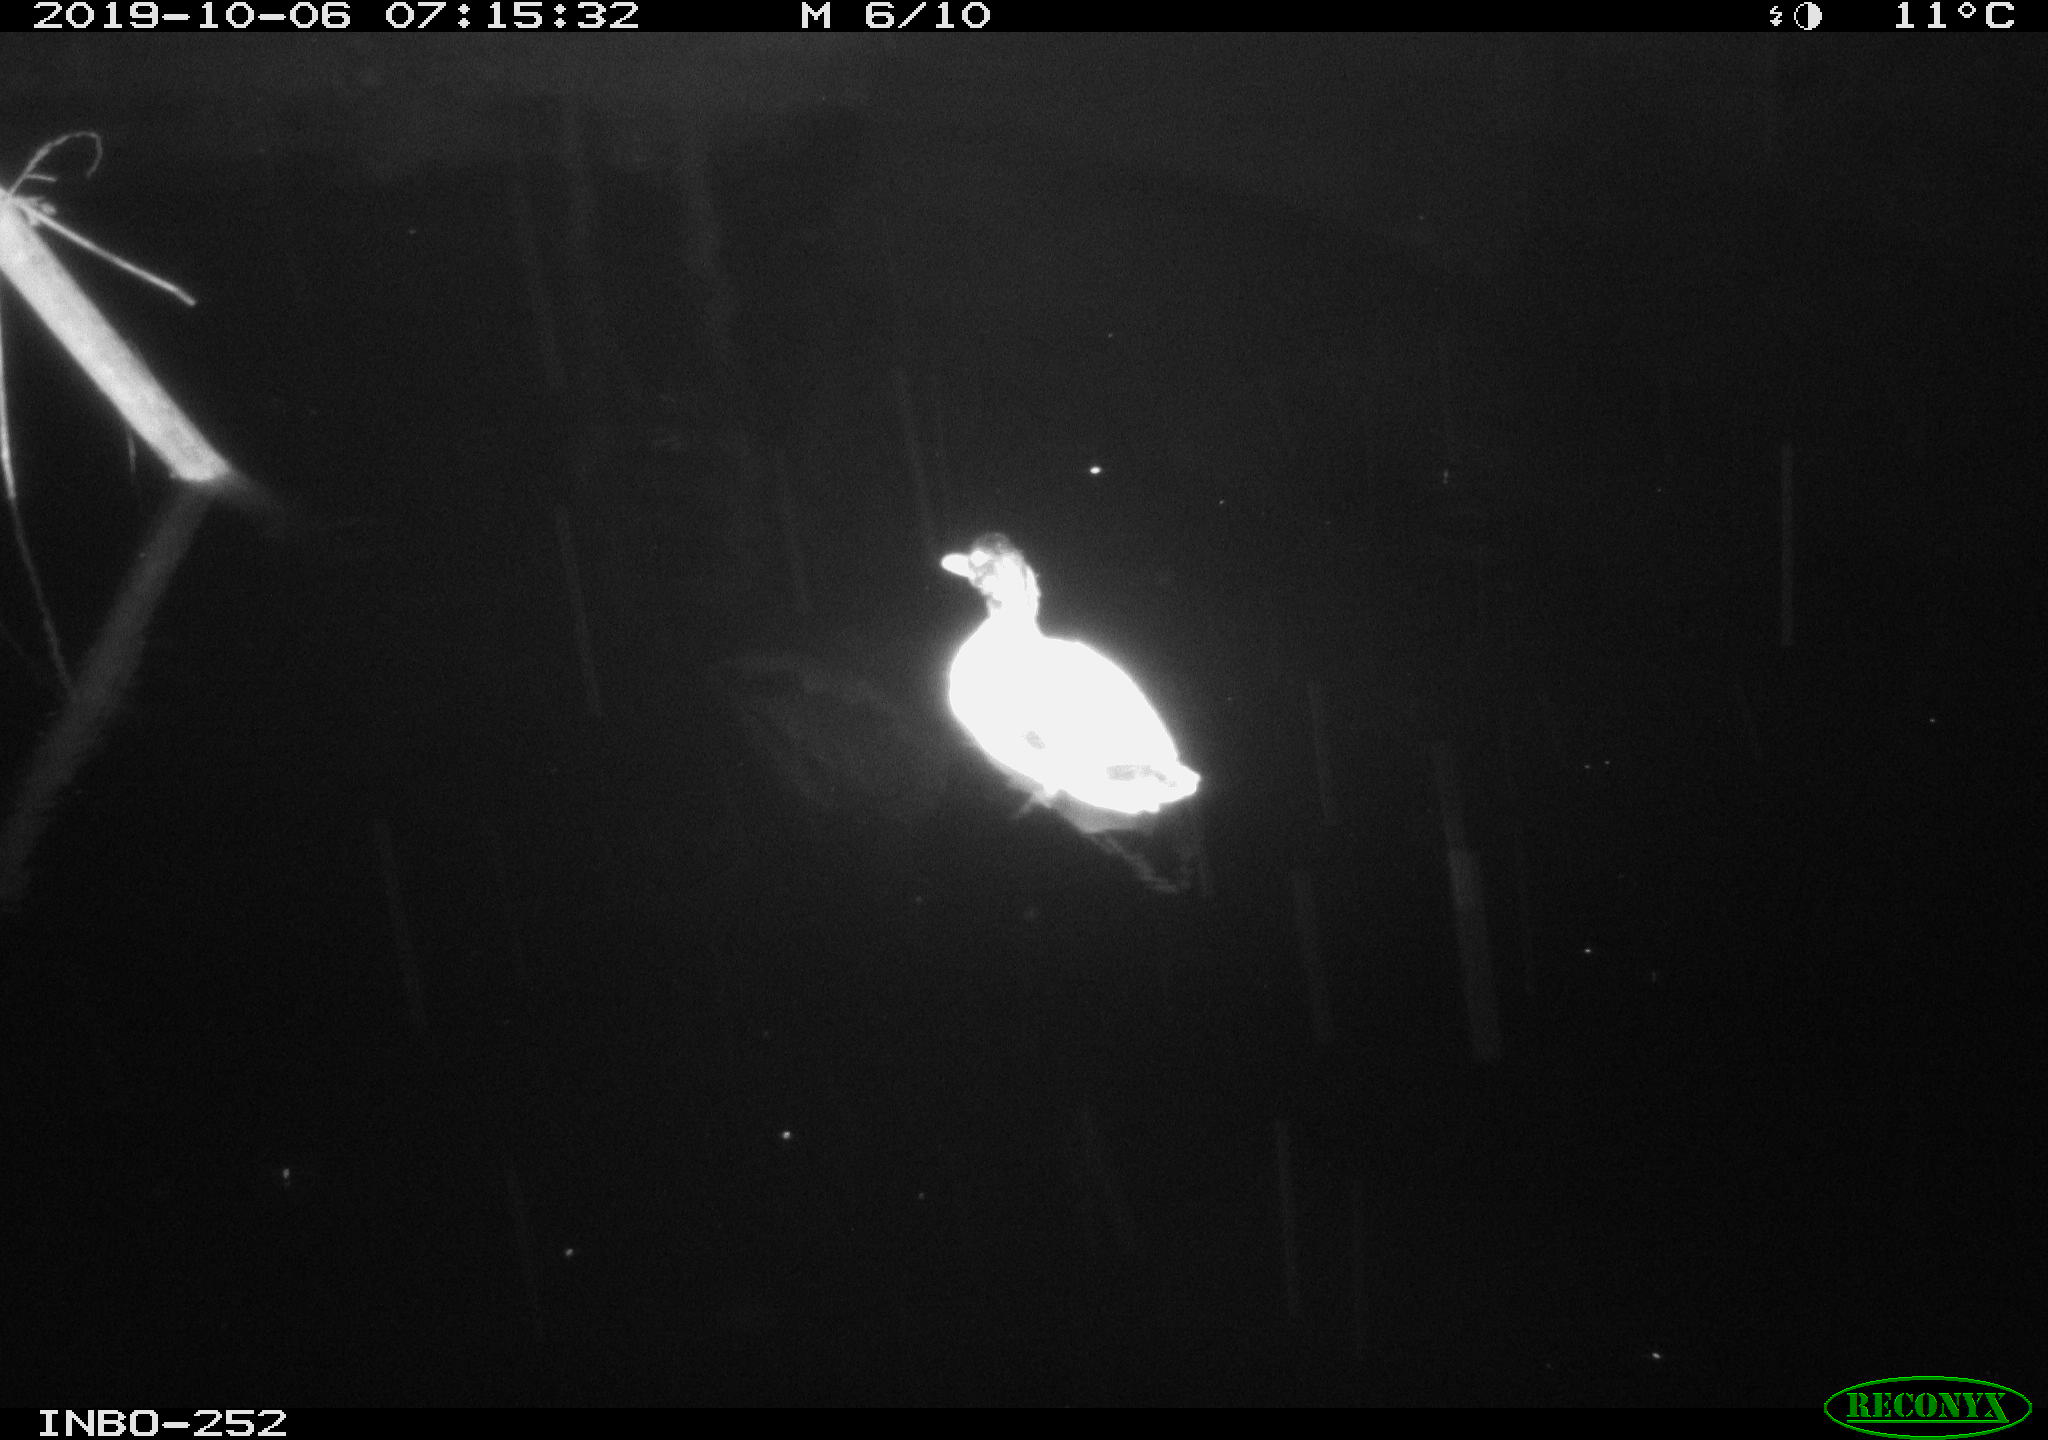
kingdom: Animalia
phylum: Chordata
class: Aves
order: Anseriformes
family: Anatidae
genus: Anas
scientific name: Anas platyrhynchos
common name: Mallard
